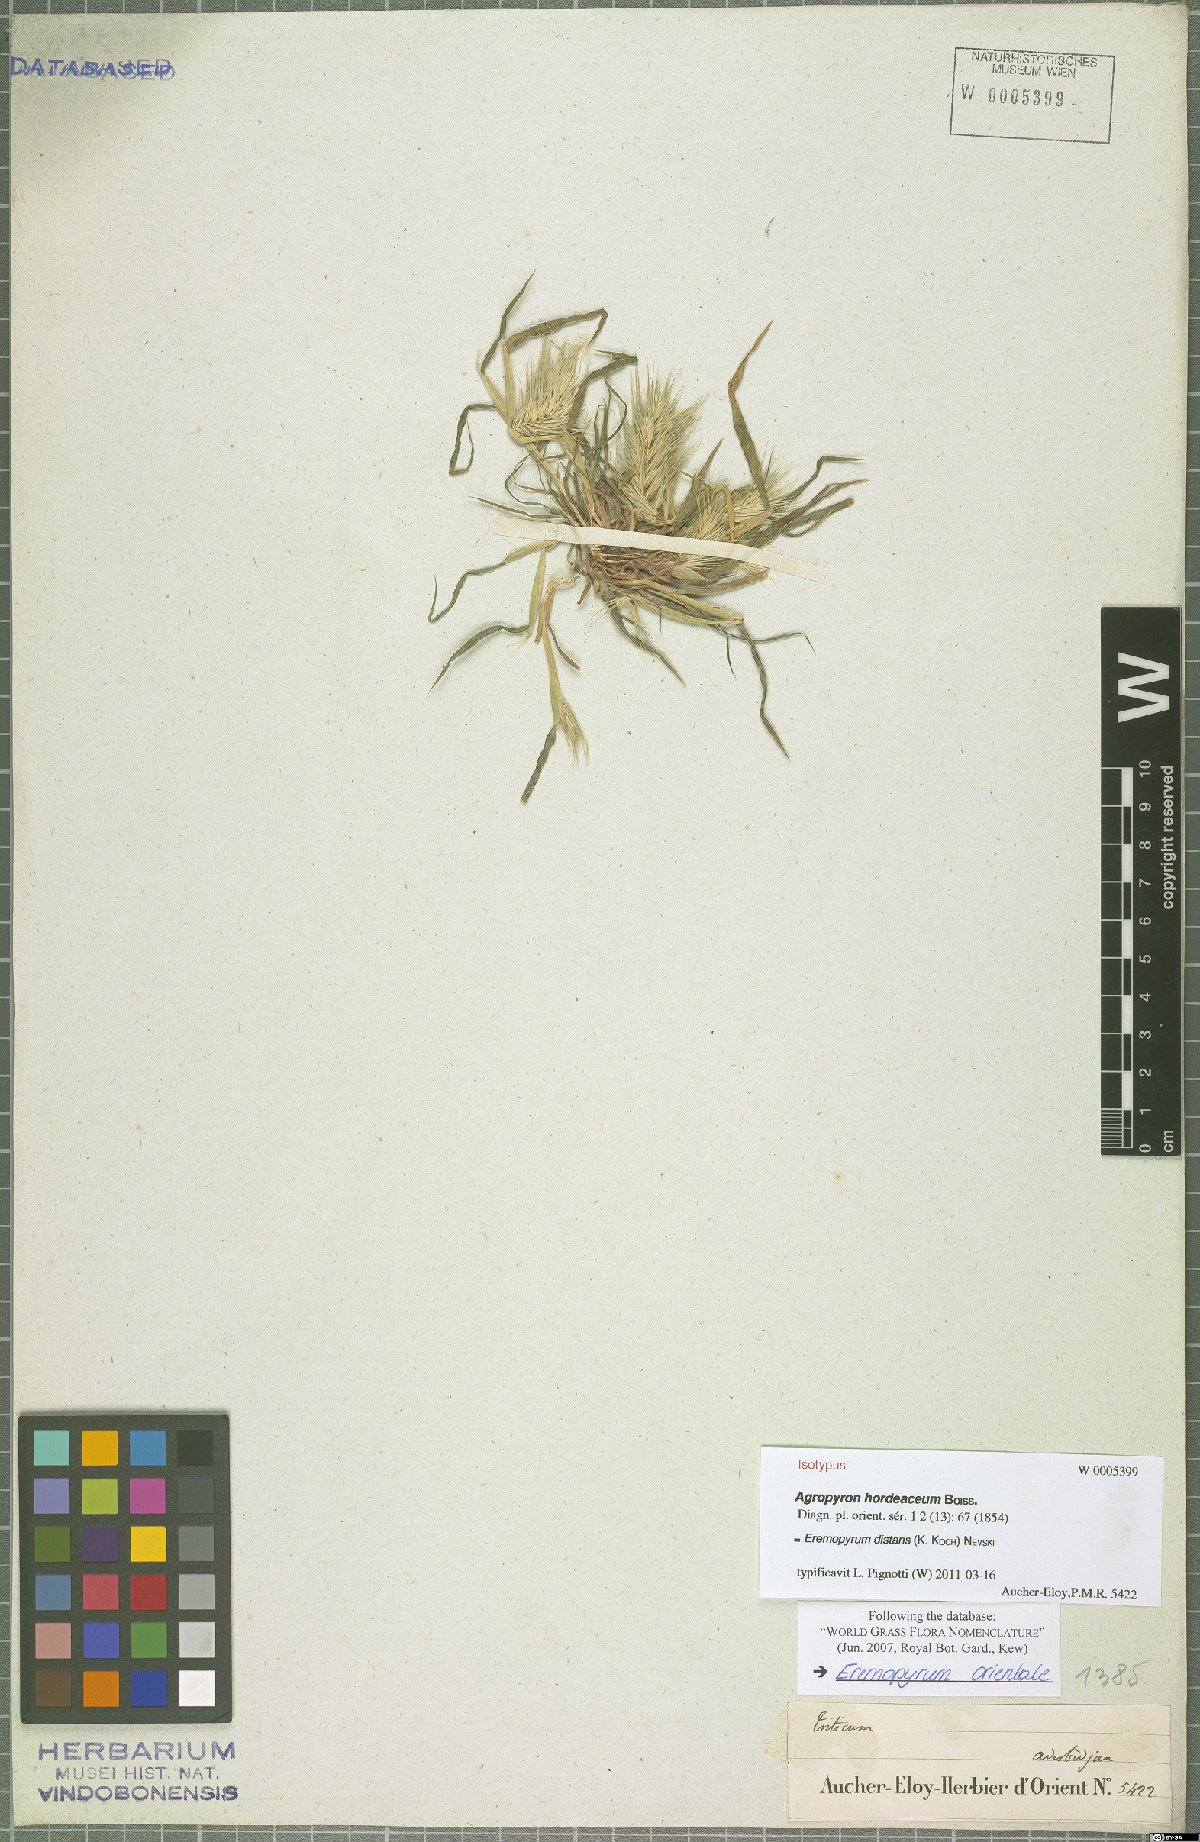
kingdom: Plantae
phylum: Tracheophyta
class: Liliopsida
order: Poales
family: Poaceae
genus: Eremopyrum
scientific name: Eremopyrum distans
